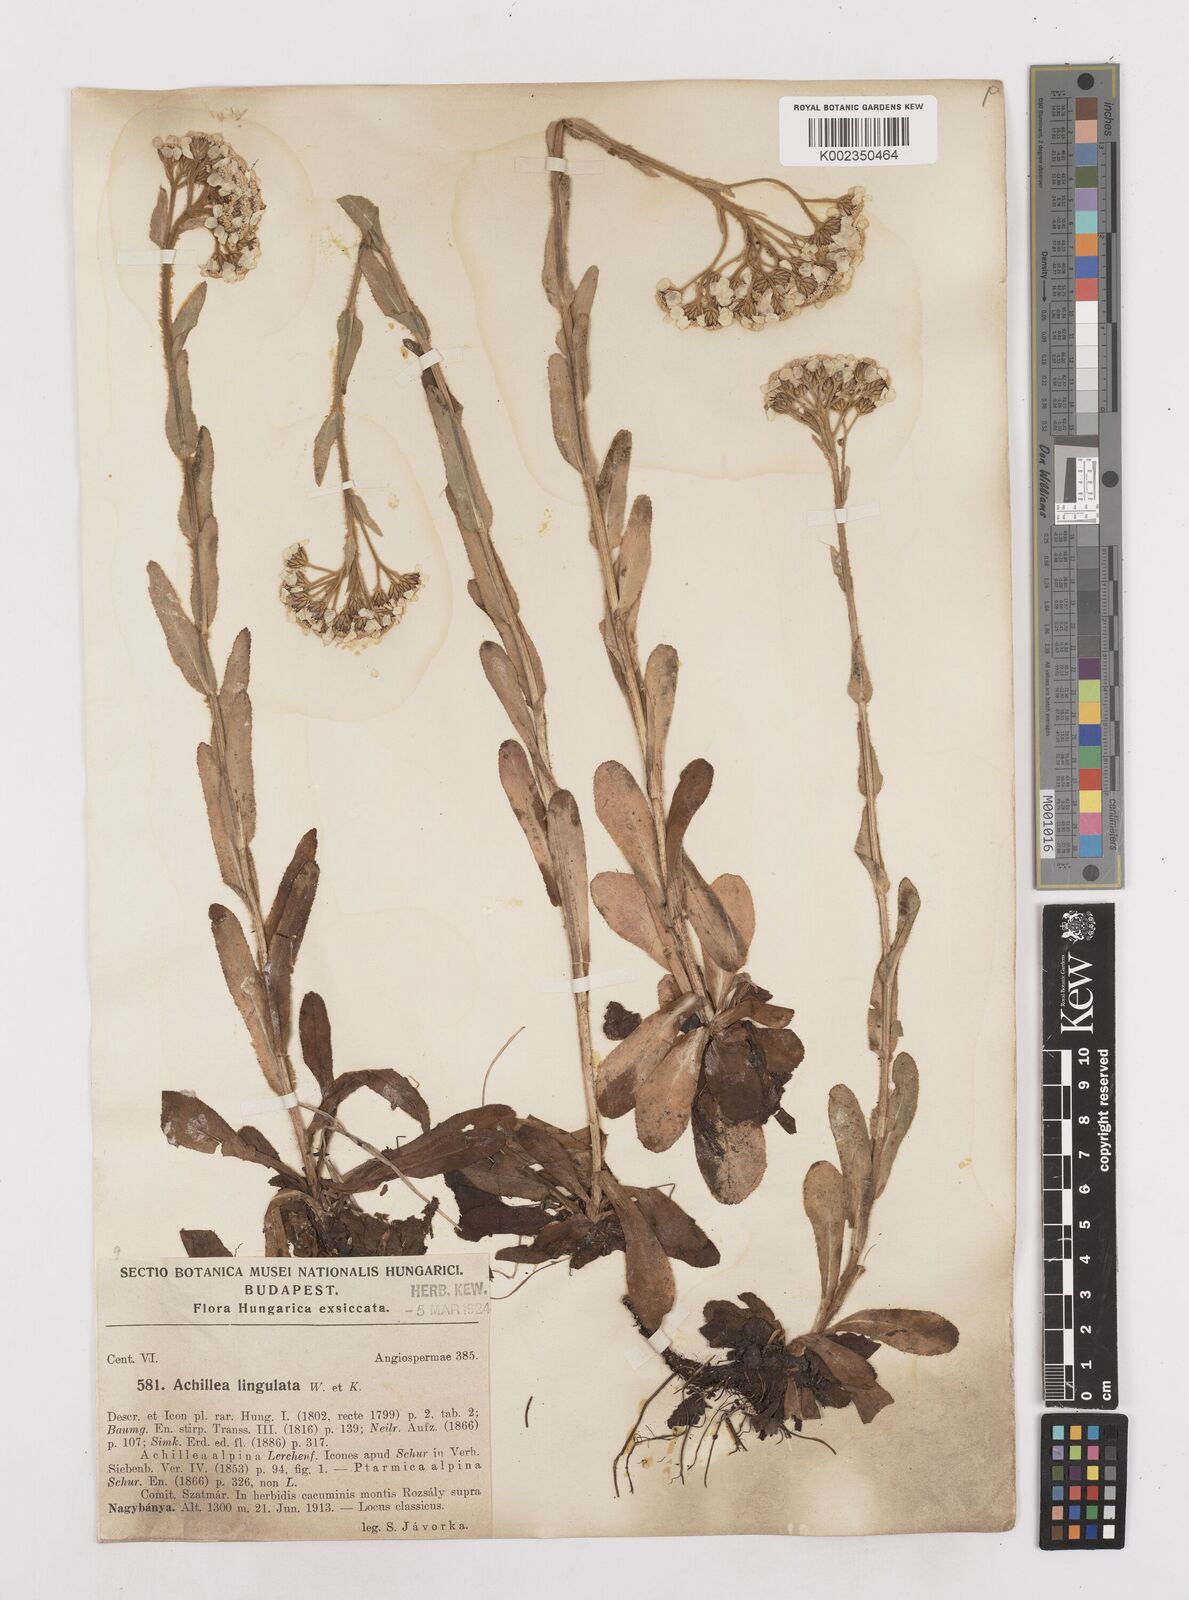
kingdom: Plantae
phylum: Tracheophyta
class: Magnoliopsida
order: Asterales
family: Asteraceae
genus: Achillea
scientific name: Achillea lingulata
